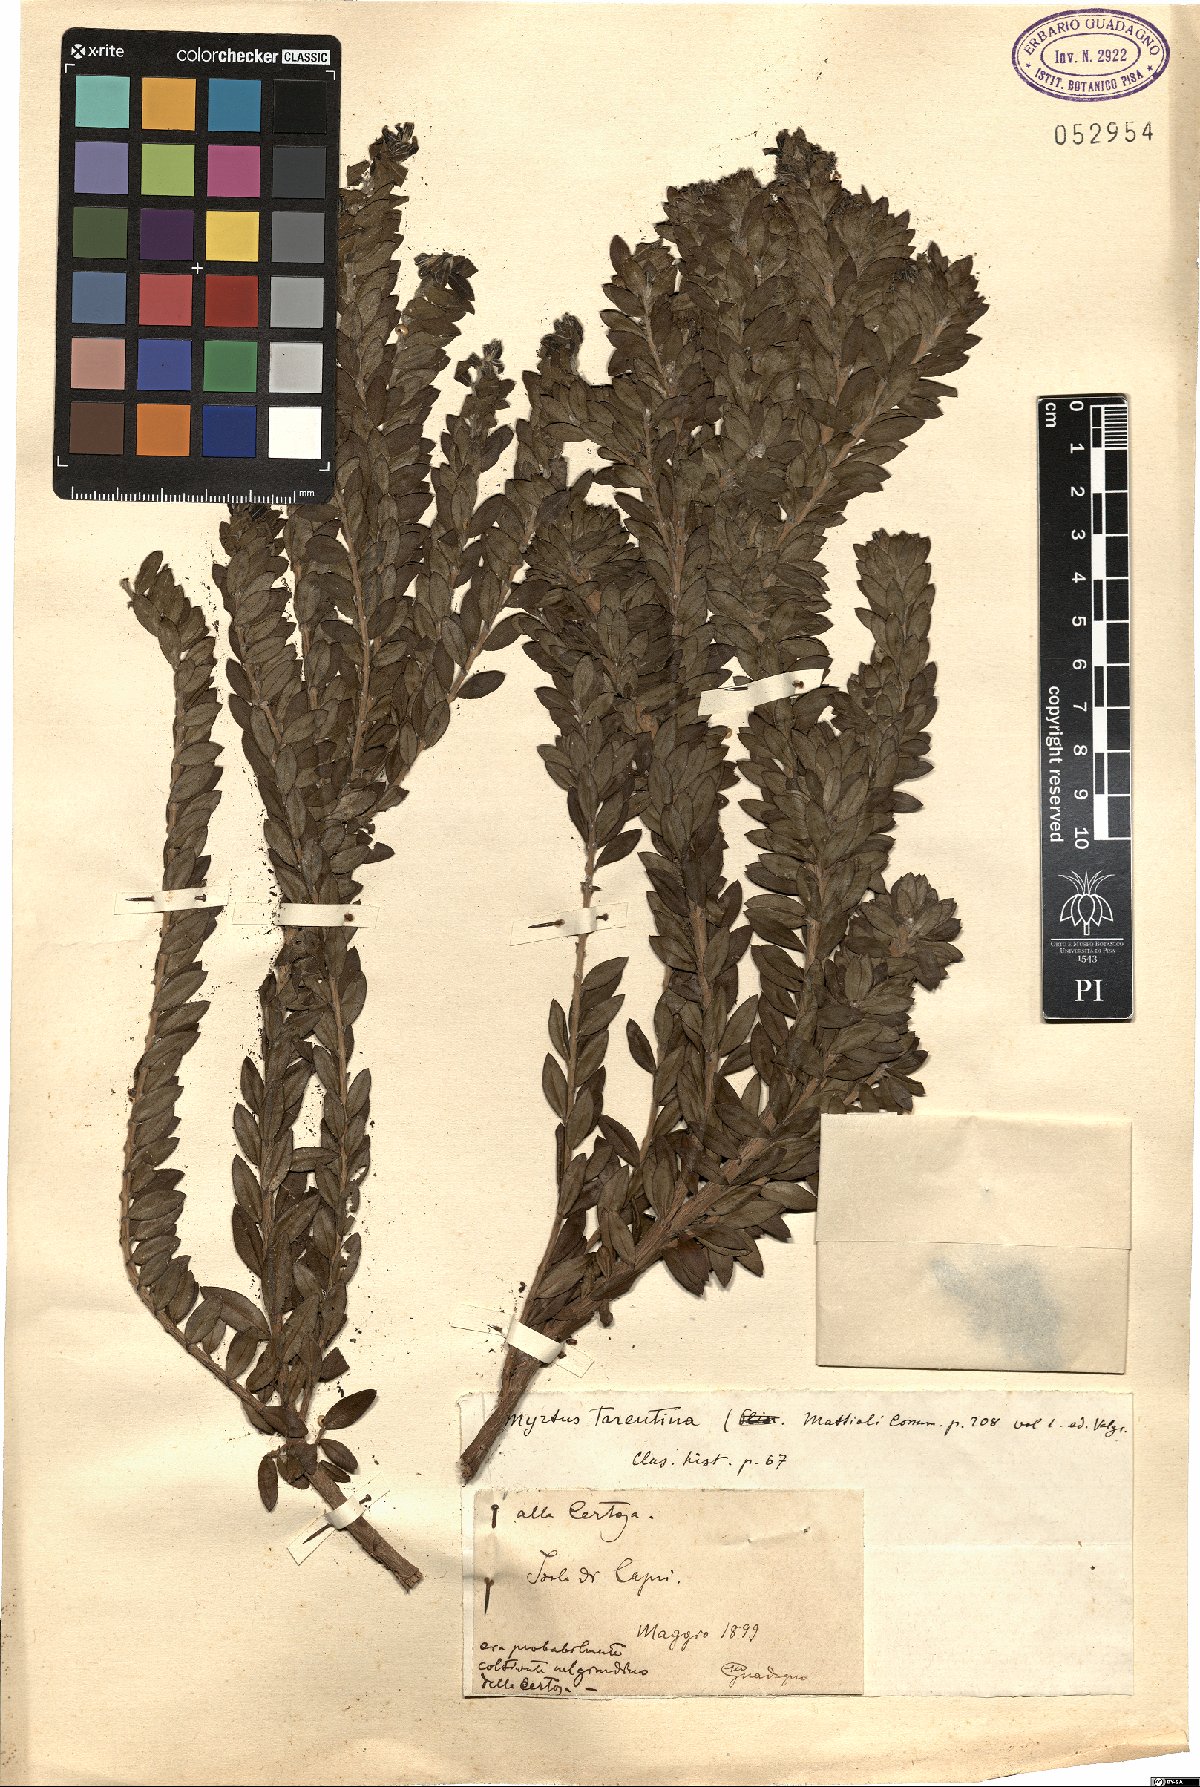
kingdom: Plantae
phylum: Tracheophyta
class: Magnoliopsida
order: Myrtales
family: Myrtaceae
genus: Myrtus
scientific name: Myrtus communis
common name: Myrtle
